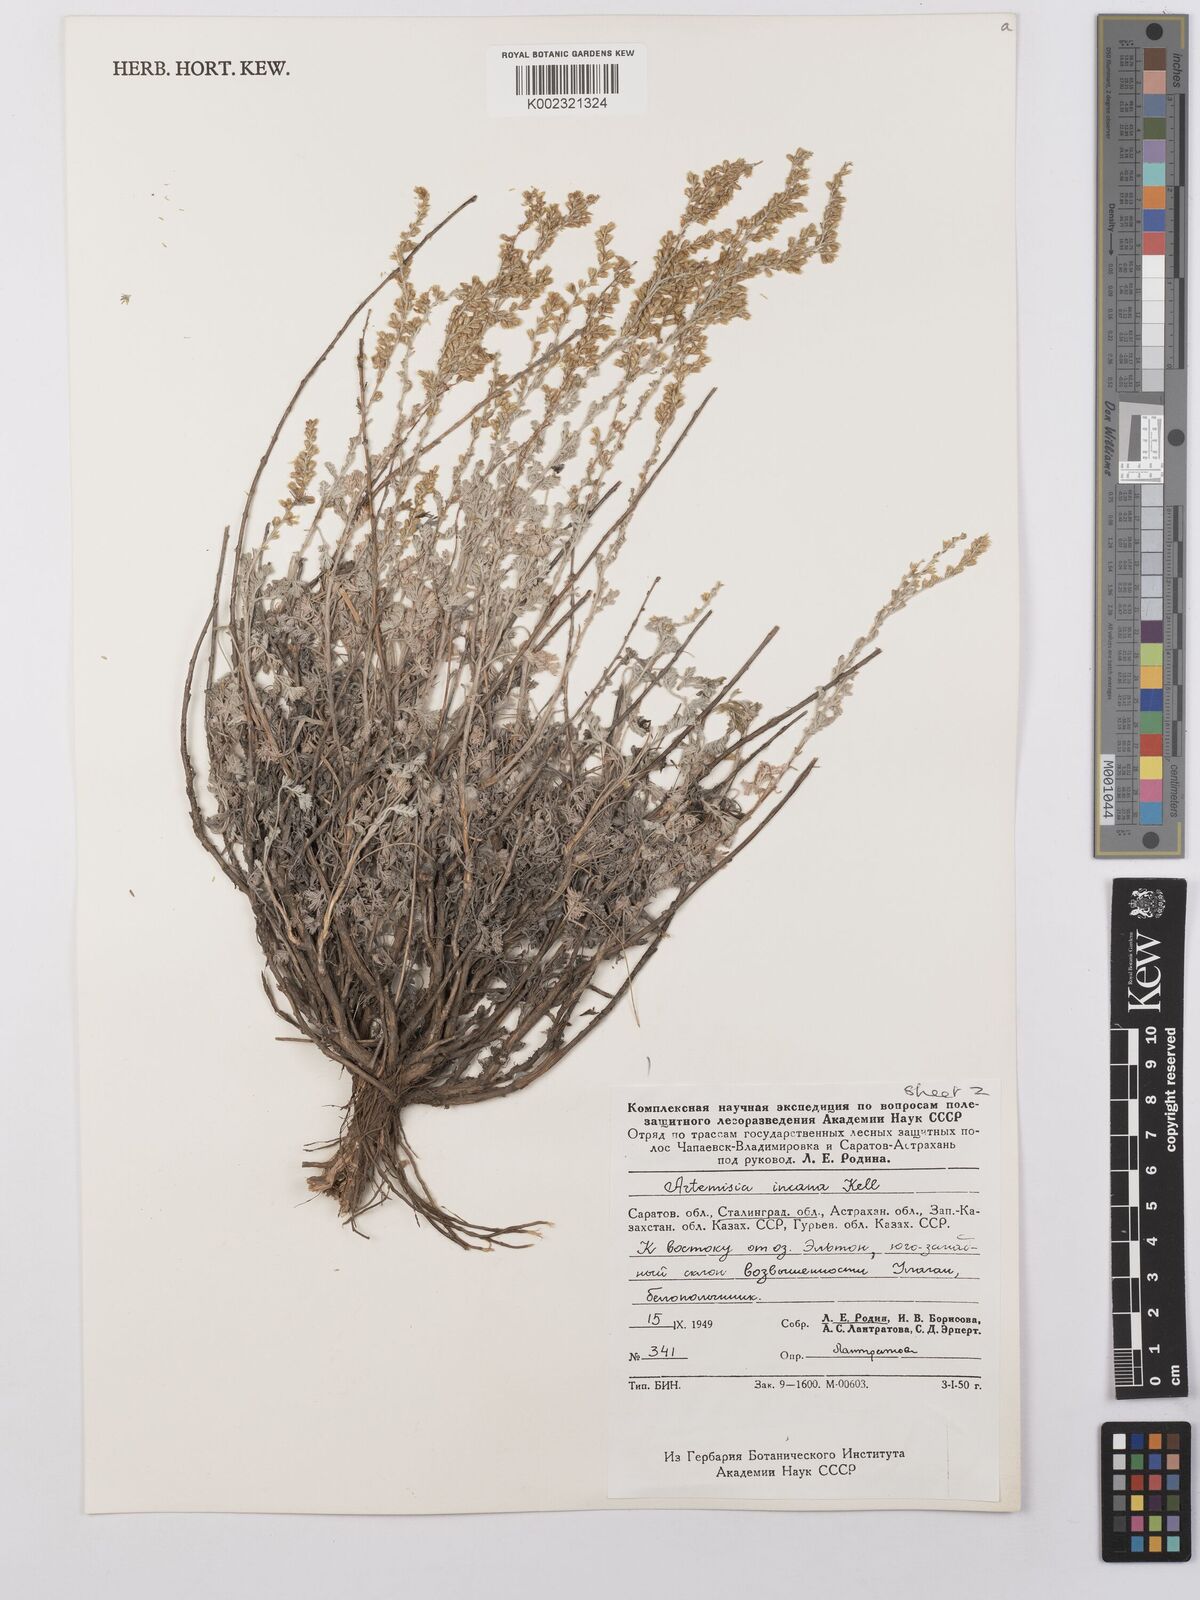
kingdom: Plantae
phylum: Tracheophyta
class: Magnoliopsida
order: Asterales
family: Asteraceae
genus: Artemisia
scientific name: Artemisia taurica
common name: Tauric wormwood
